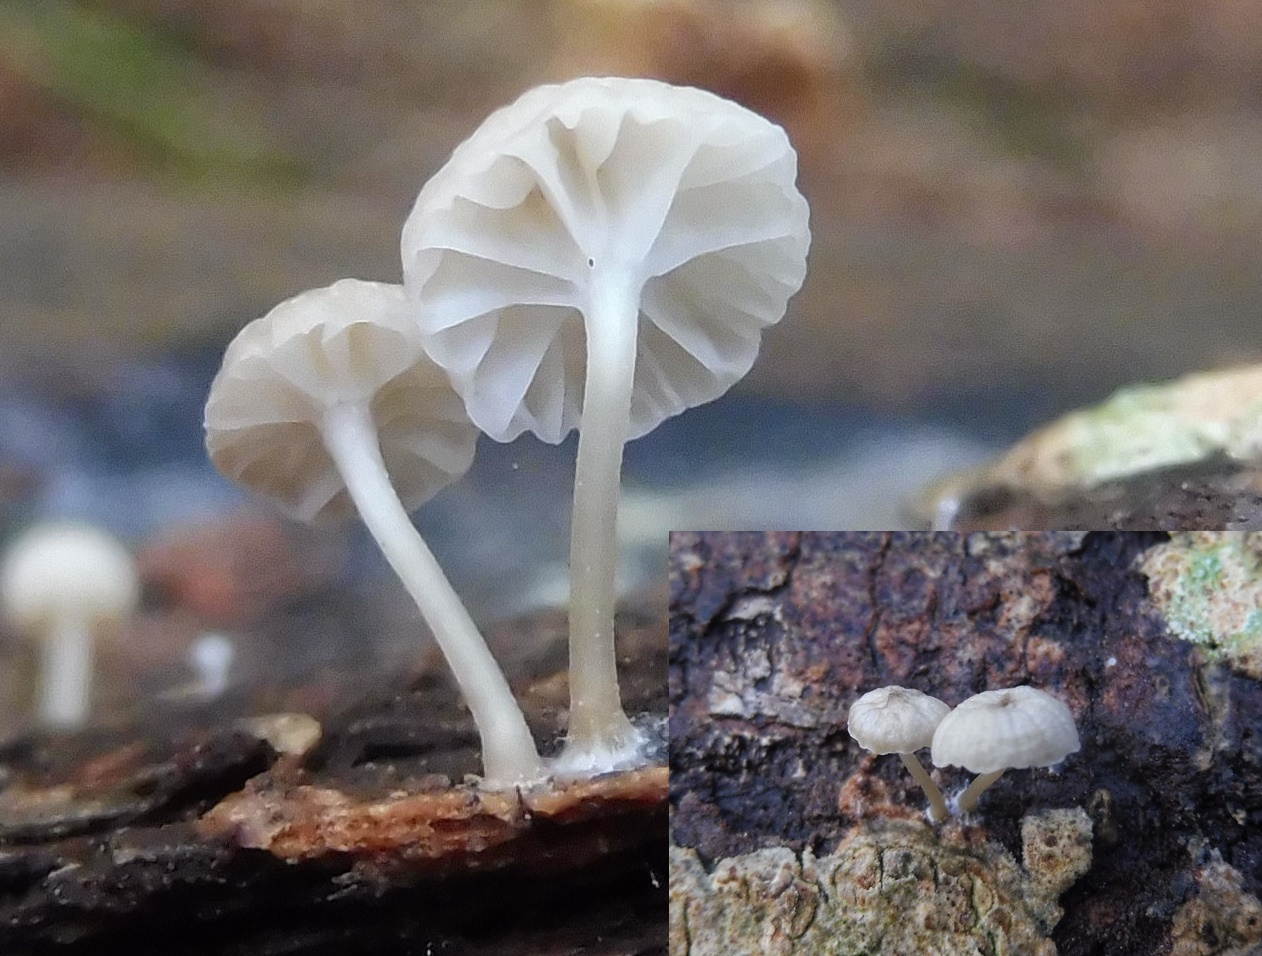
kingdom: Fungi
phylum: Basidiomycota
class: Agaricomycetes
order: Agaricales
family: Porotheleaceae
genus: Phloeomana
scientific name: Phloeomana speirea
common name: kvist-huesvamp
